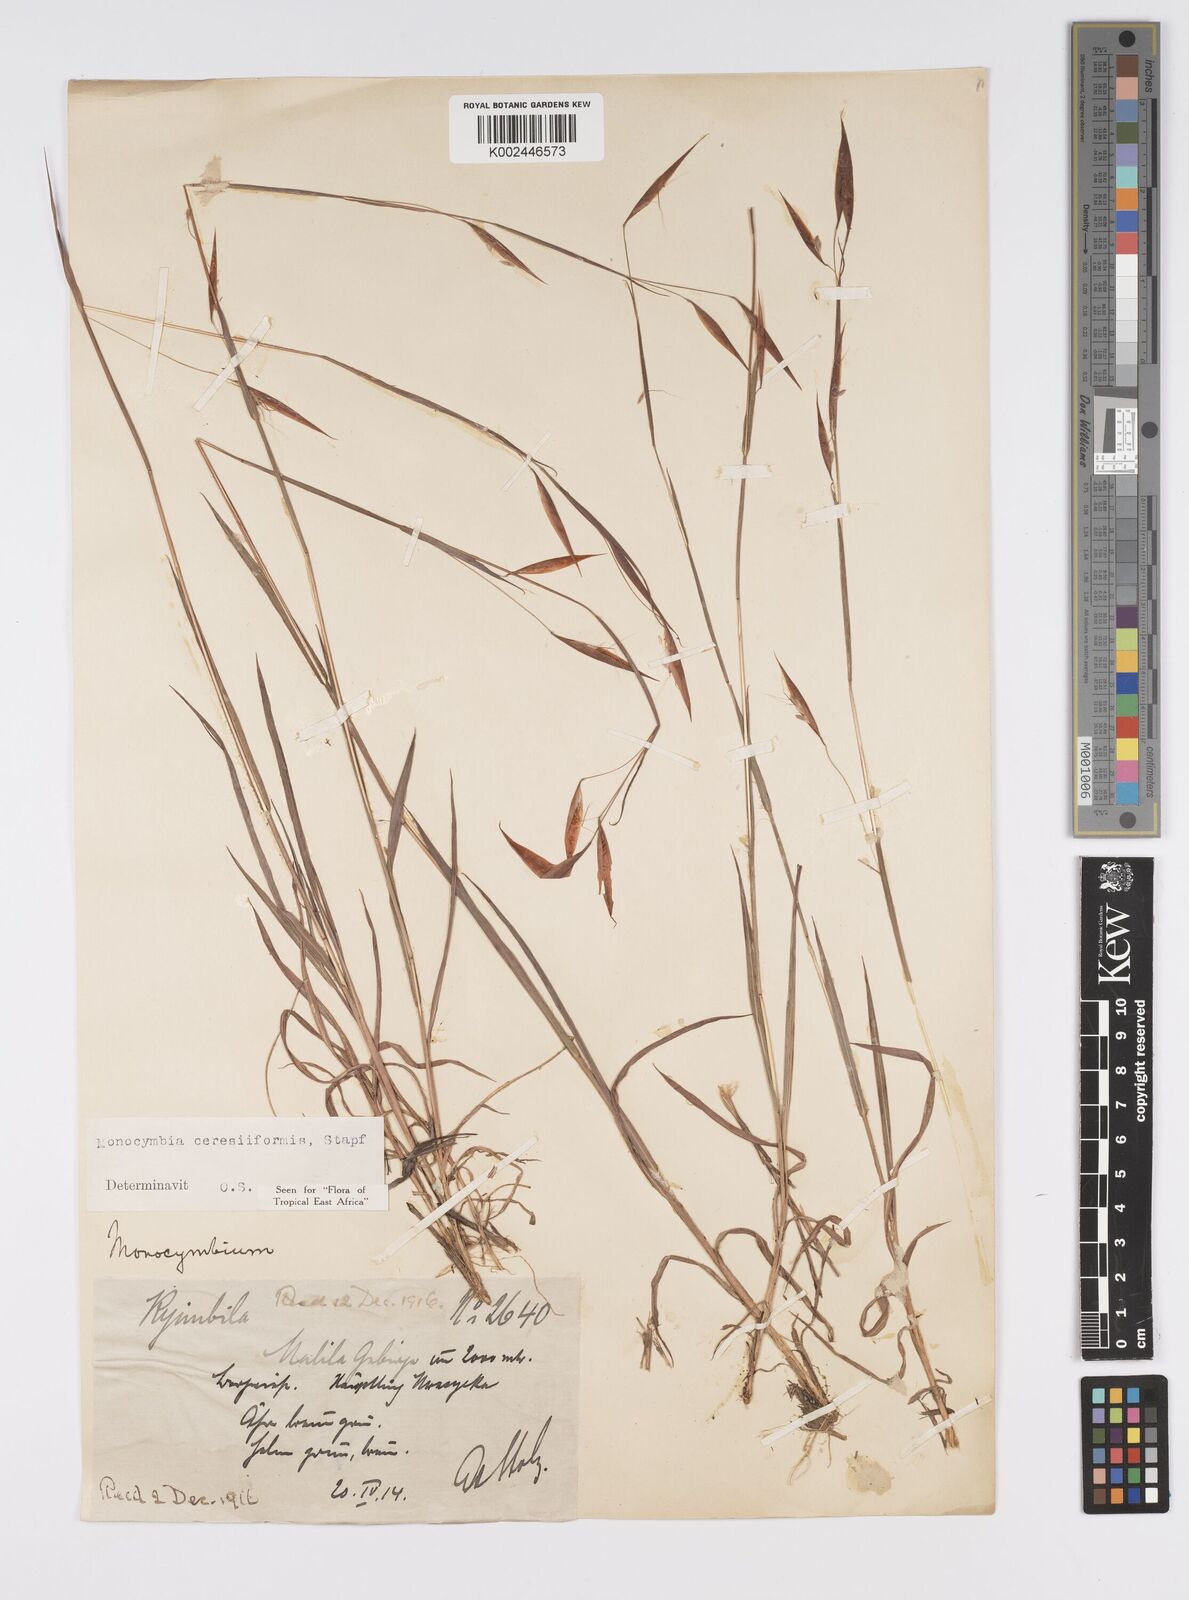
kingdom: Plantae
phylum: Tracheophyta
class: Liliopsida
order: Poales
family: Poaceae
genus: Monocymbium
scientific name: Monocymbium ceresiiforme
